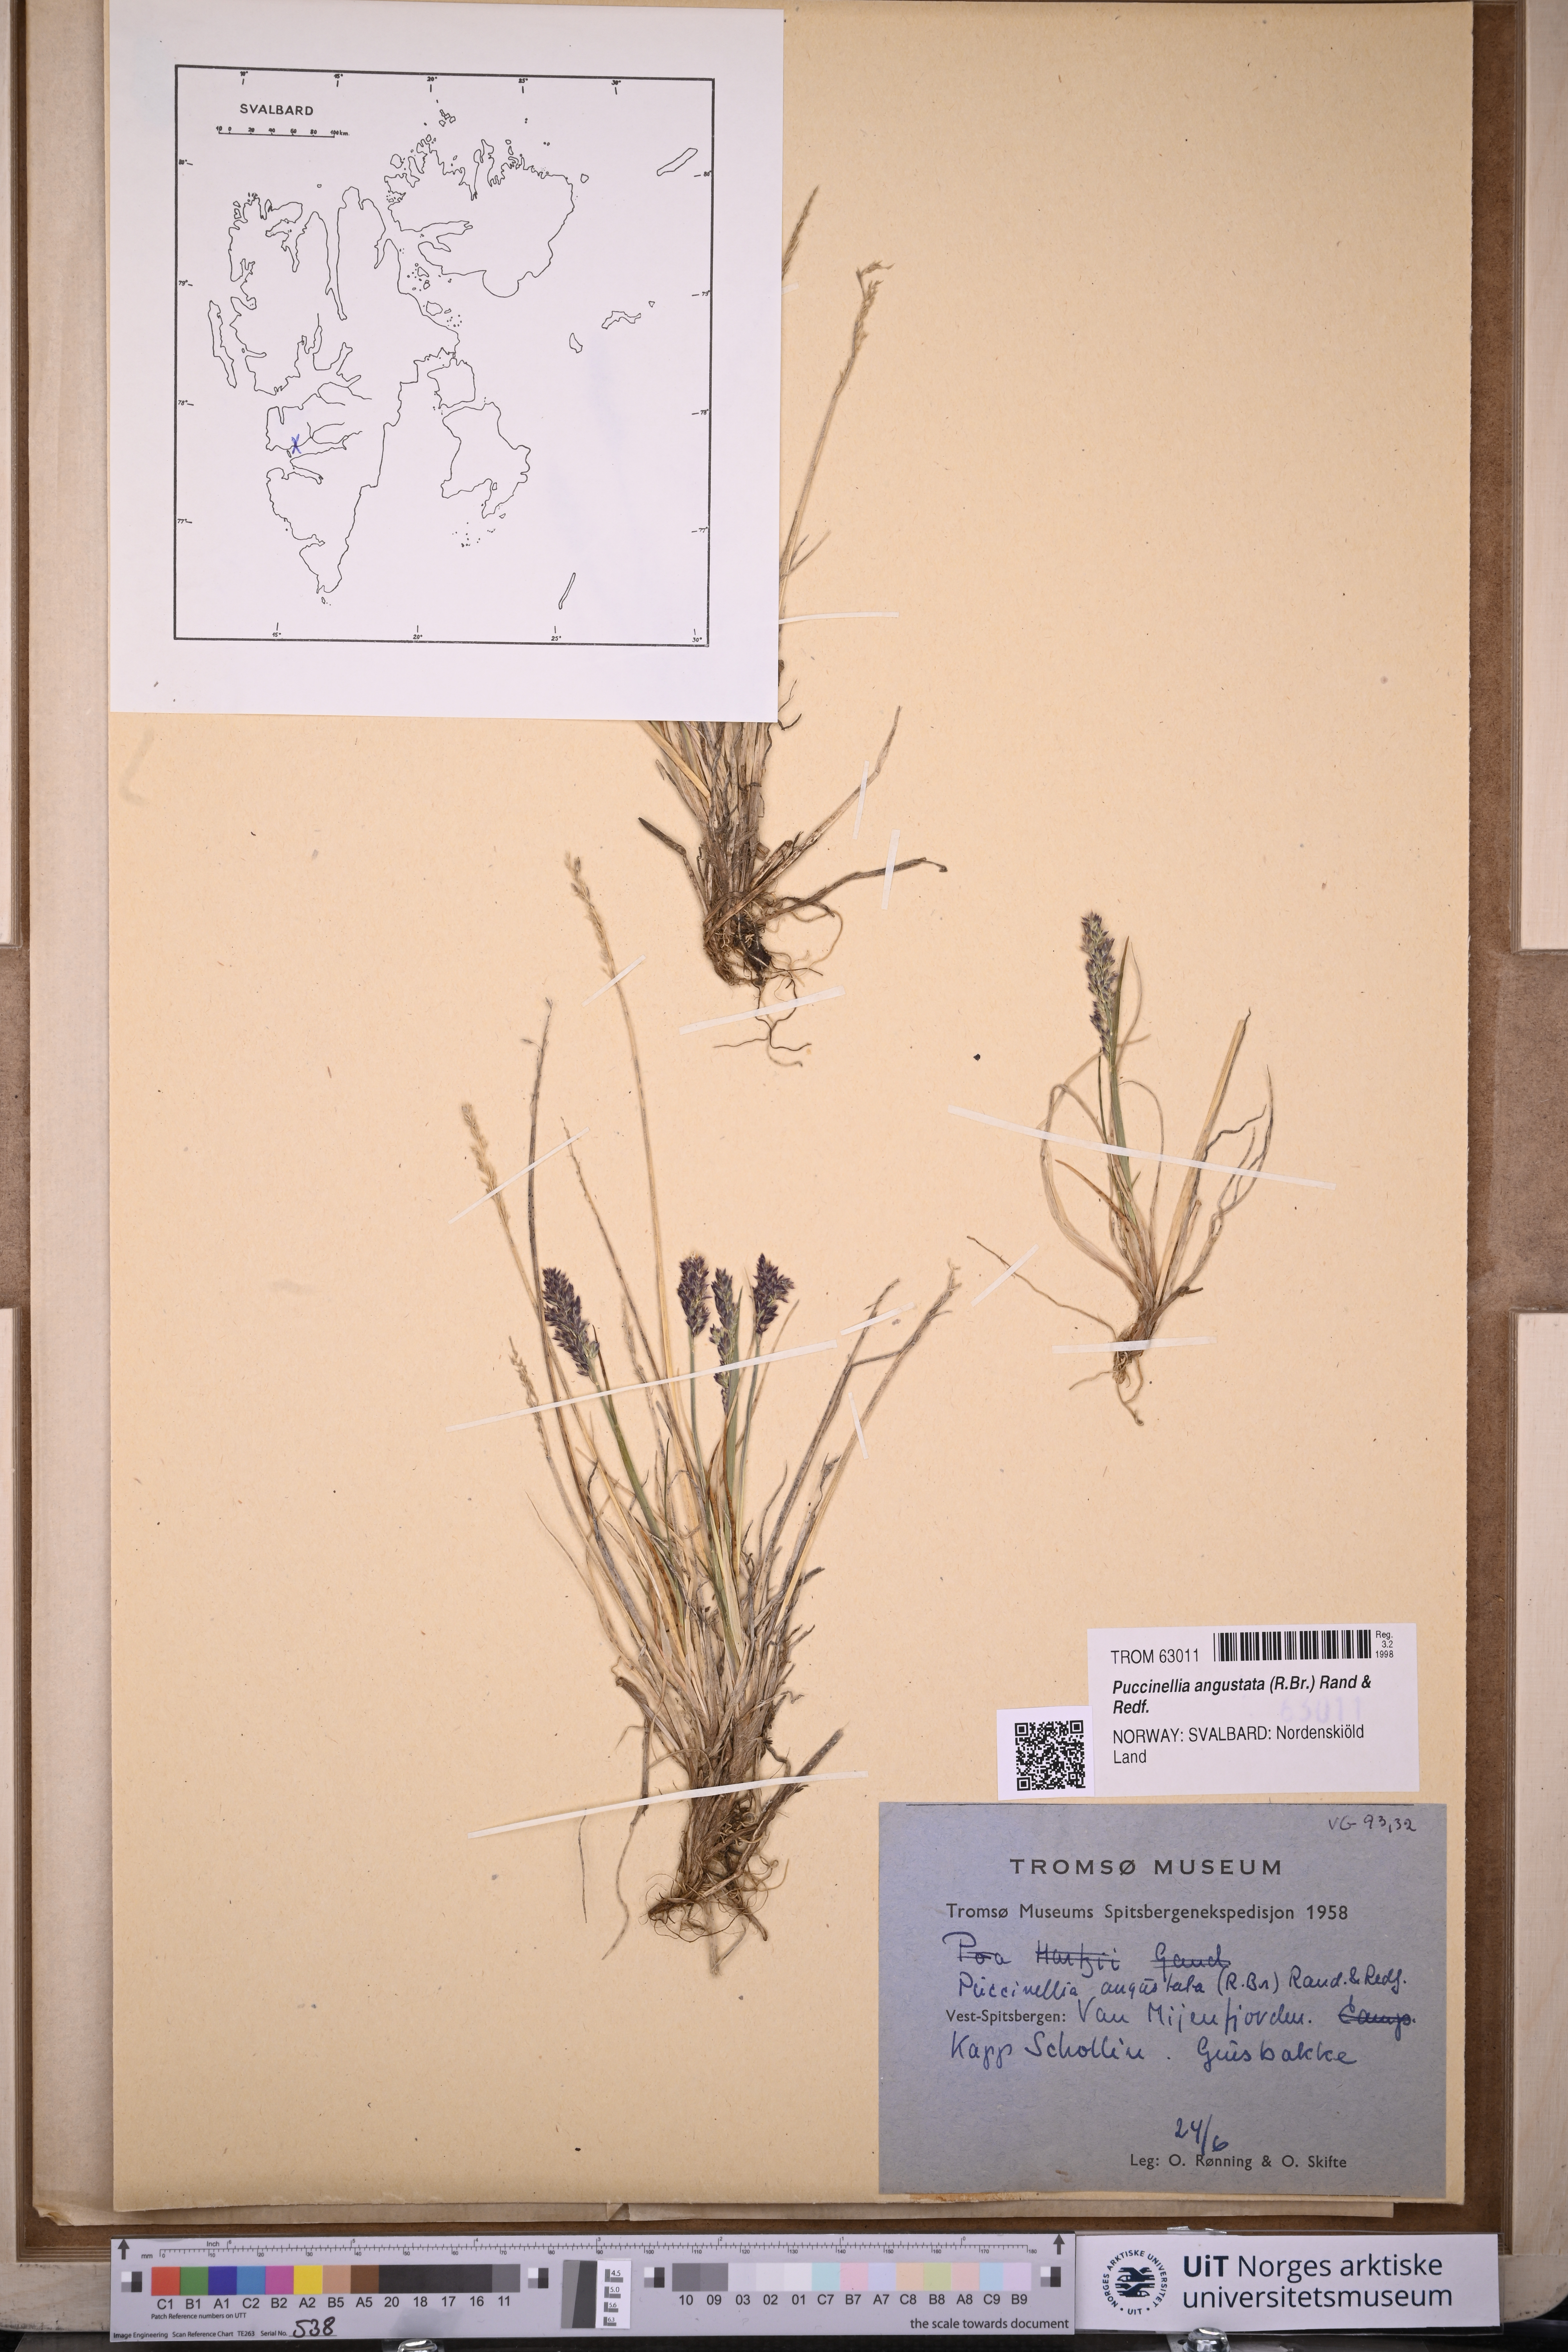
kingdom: Plantae
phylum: Tracheophyta
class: Liliopsida
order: Poales
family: Poaceae
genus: Puccinellia
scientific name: Puccinellia angustata
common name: Narrow alkaligrass
